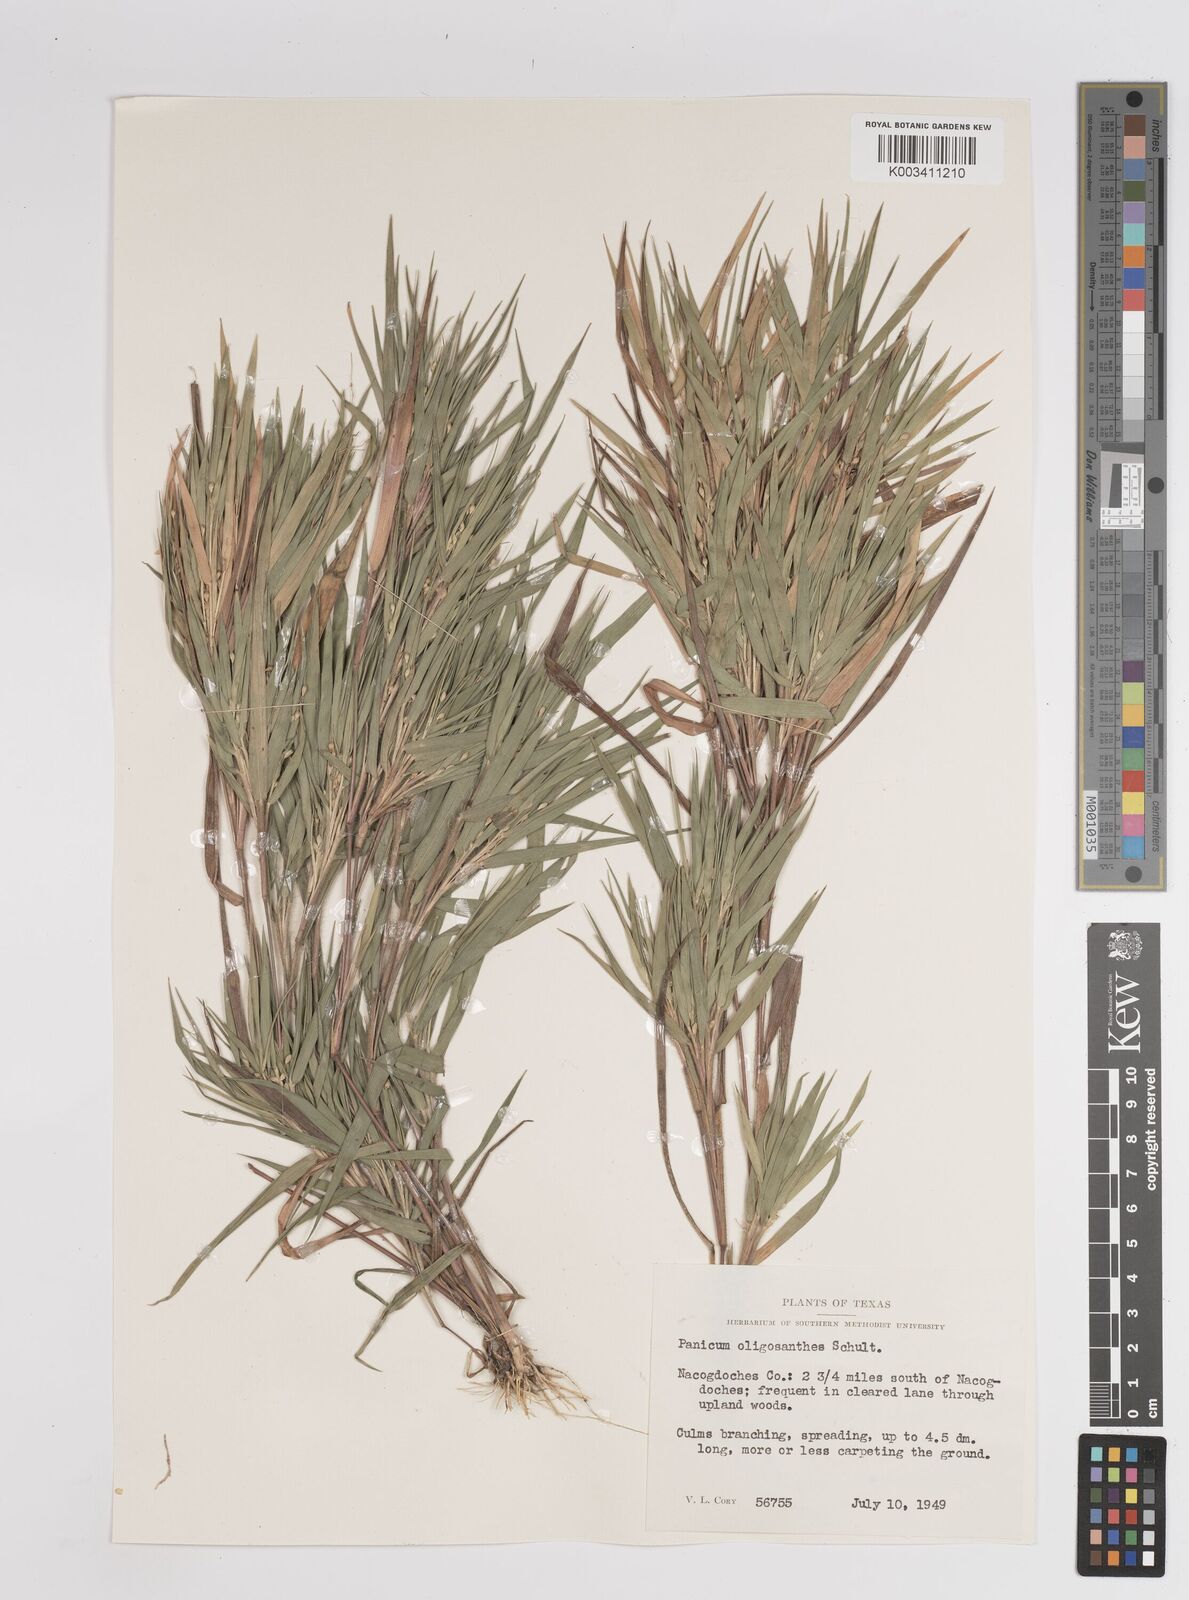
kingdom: Plantae
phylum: Tracheophyta
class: Liliopsida
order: Poales
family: Poaceae
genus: Dichanthelium
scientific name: Dichanthelium oligosanthes
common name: Few-anther obscuregrass
